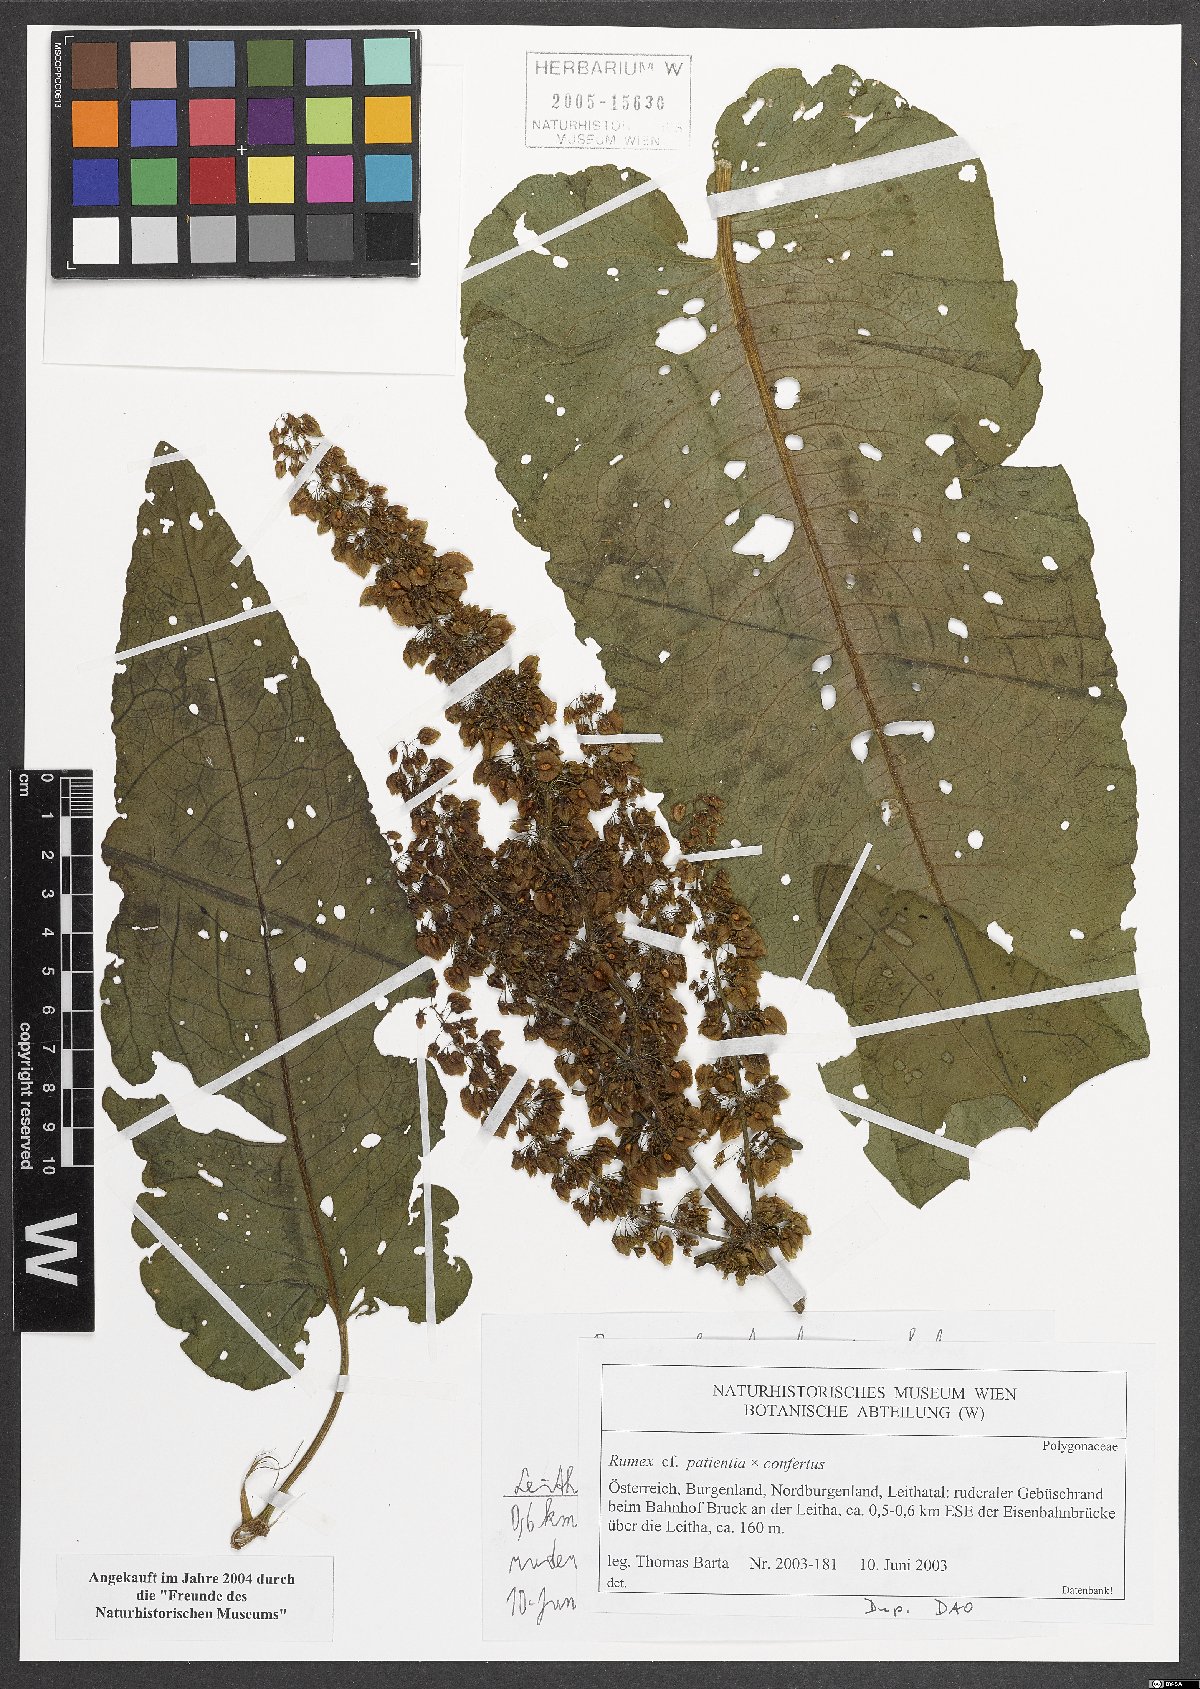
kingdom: Plantae
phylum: Tracheophyta
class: Magnoliopsida
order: Caryophyllales
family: Polygonaceae
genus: Rumex
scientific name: Rumex
